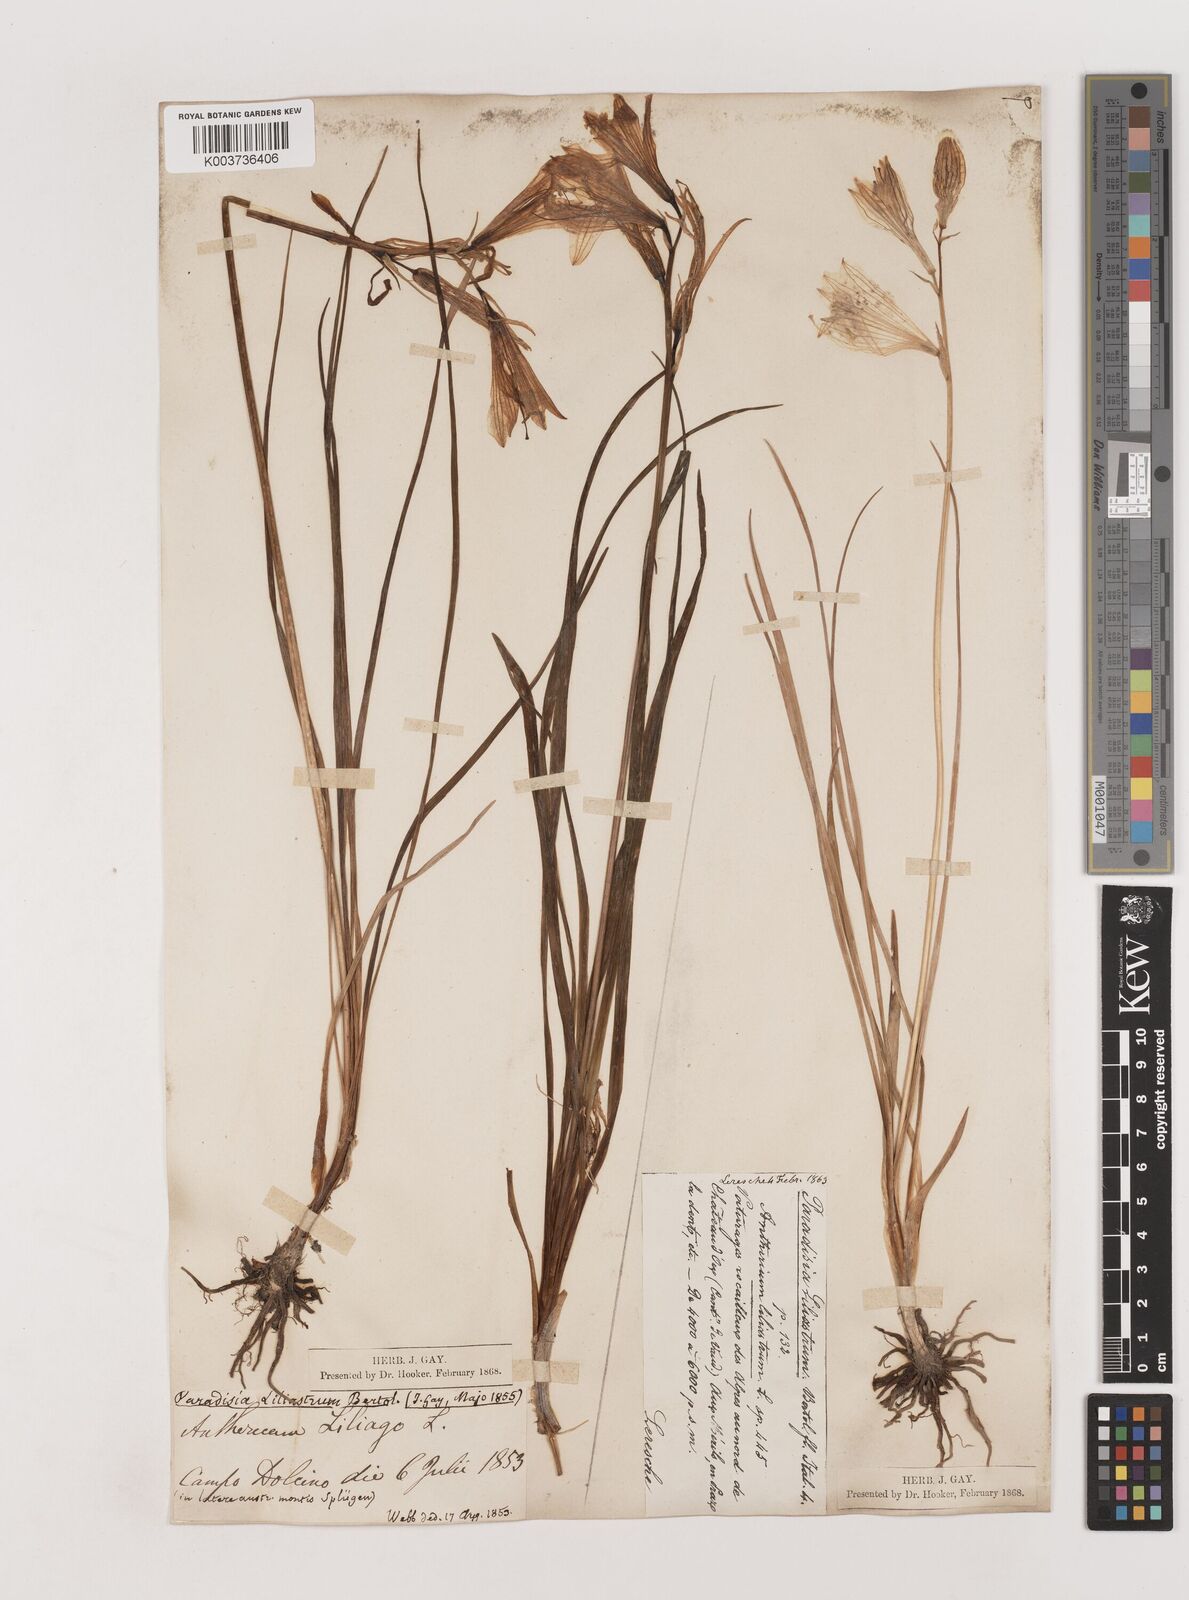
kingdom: Plantae
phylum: Tracheophyta
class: Liliopsida
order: Asparagales
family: Asparagaceae
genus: Paradisea
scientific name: Paradisea liliastrum
